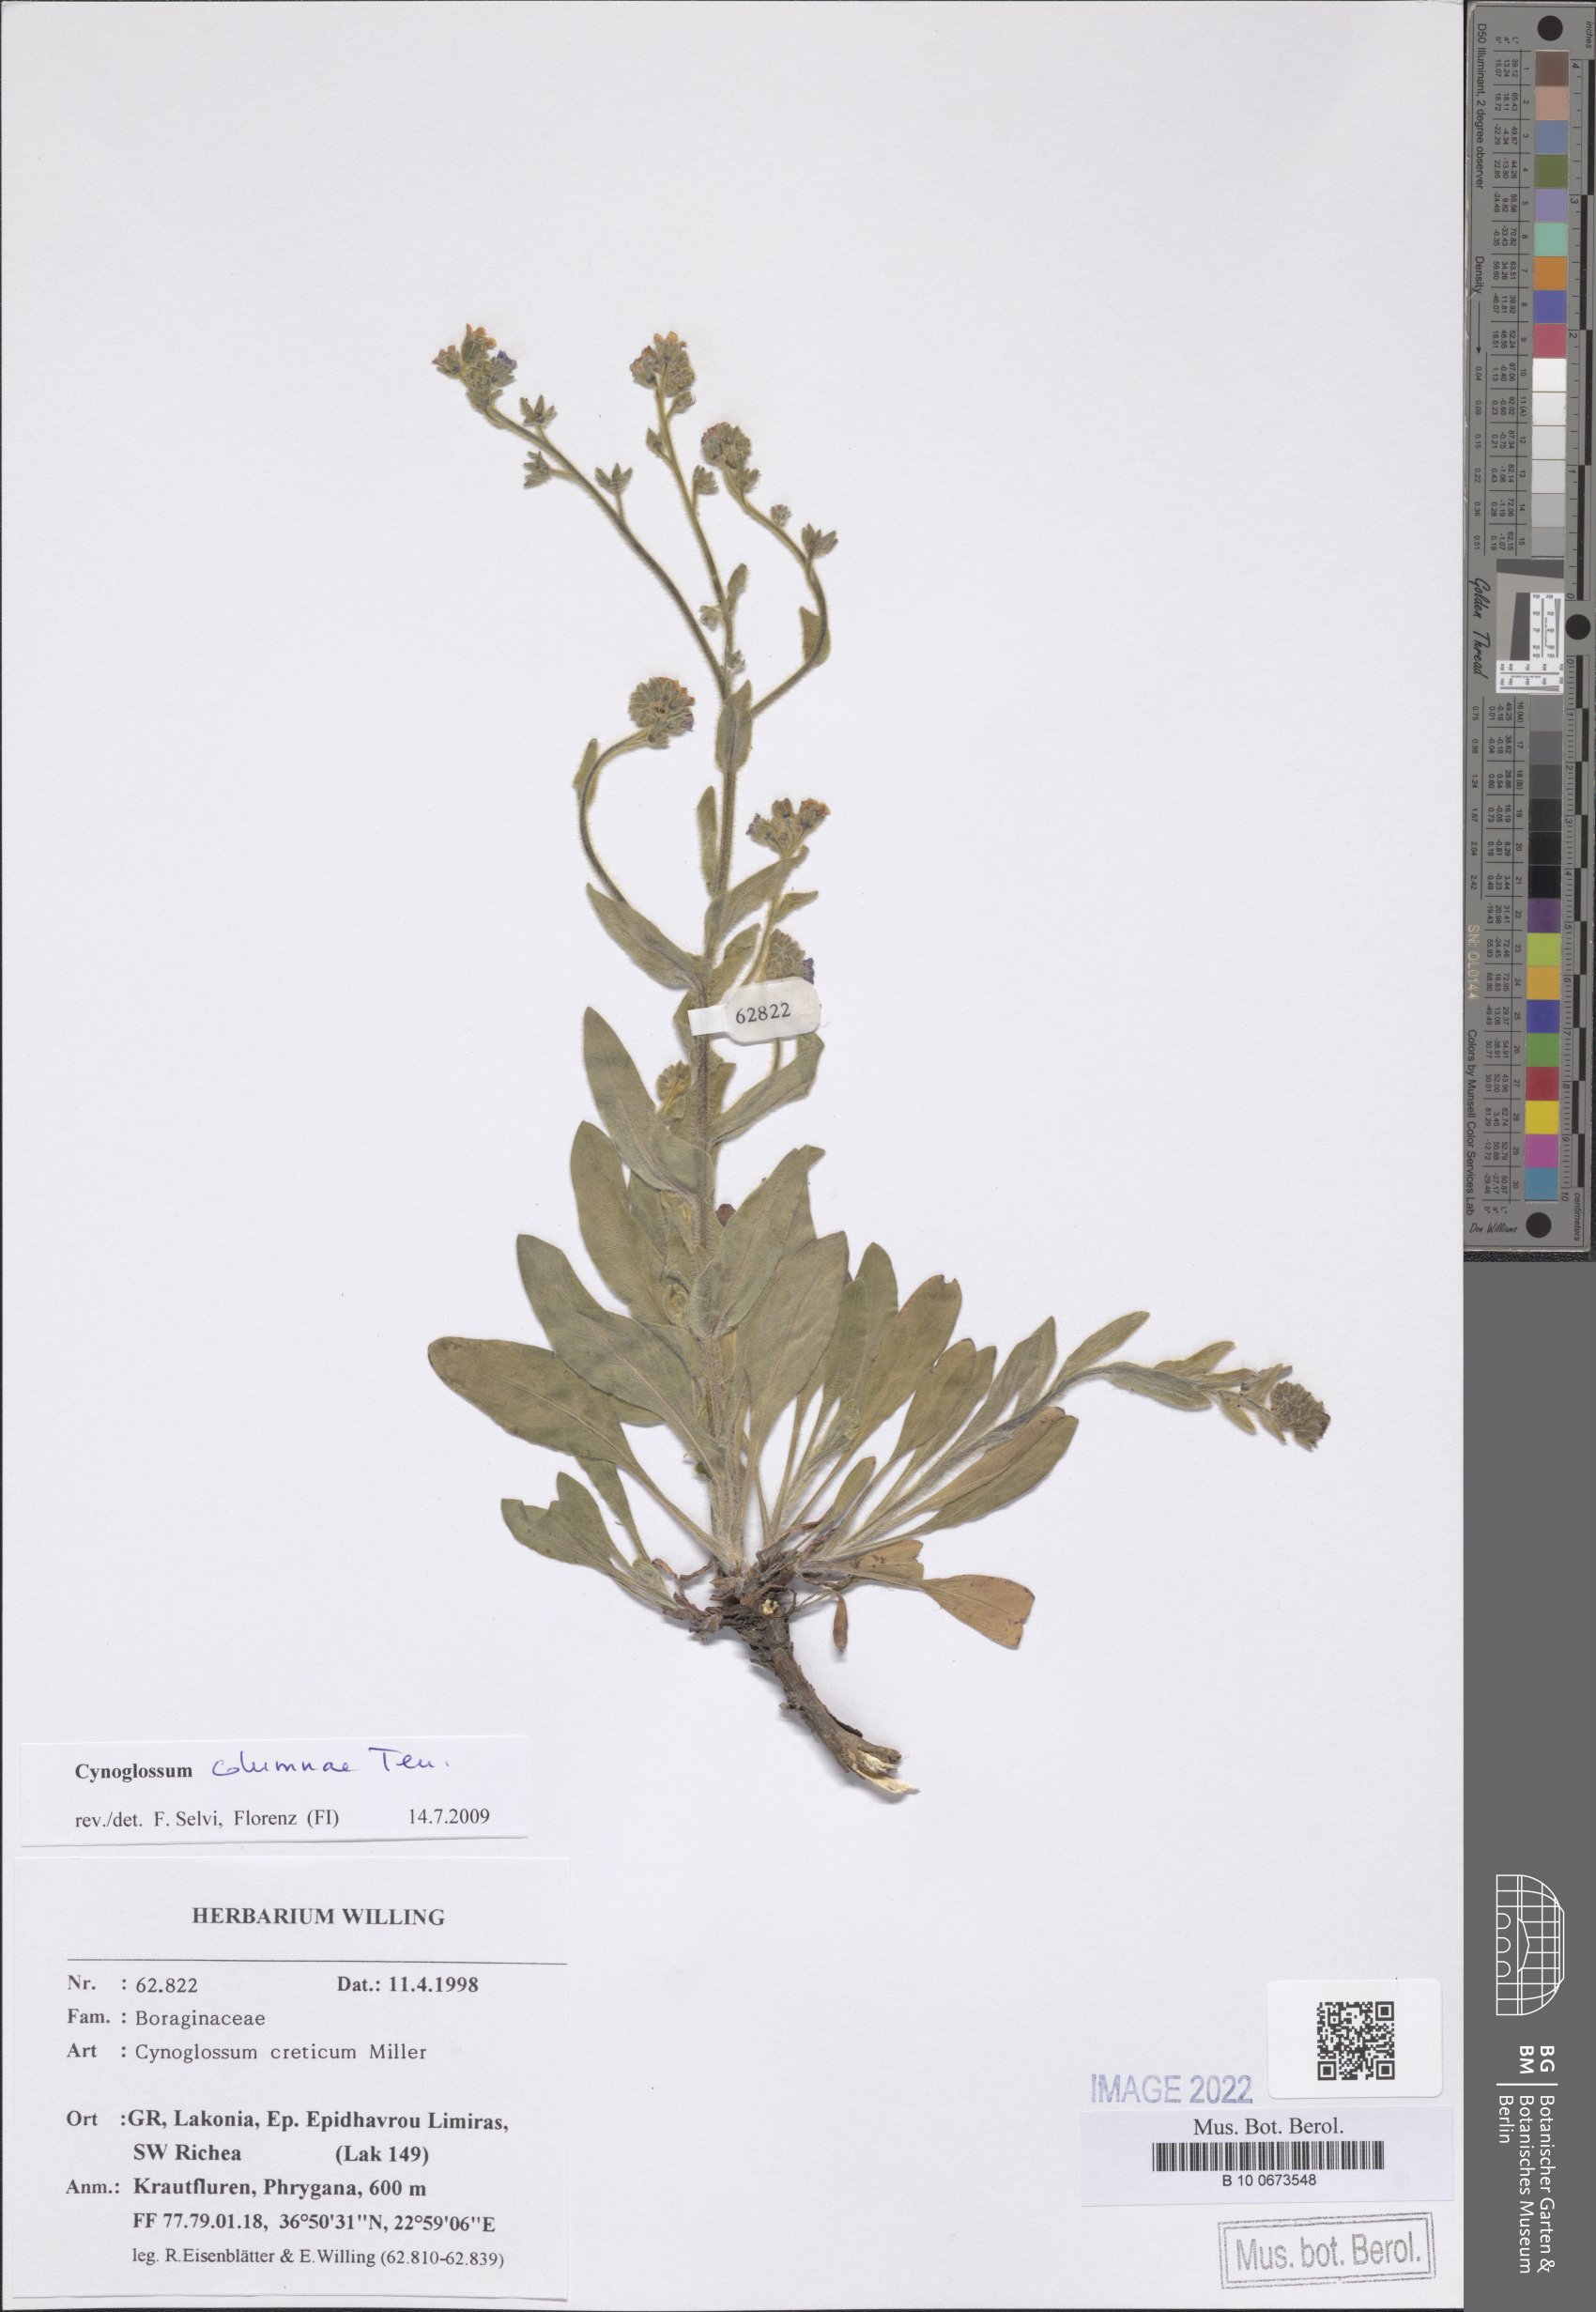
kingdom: Plantae
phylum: Tracheophyta
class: Magnoliopsida
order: Boraginales
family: Boraginaceae
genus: Rindera
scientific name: Rindera columnae
